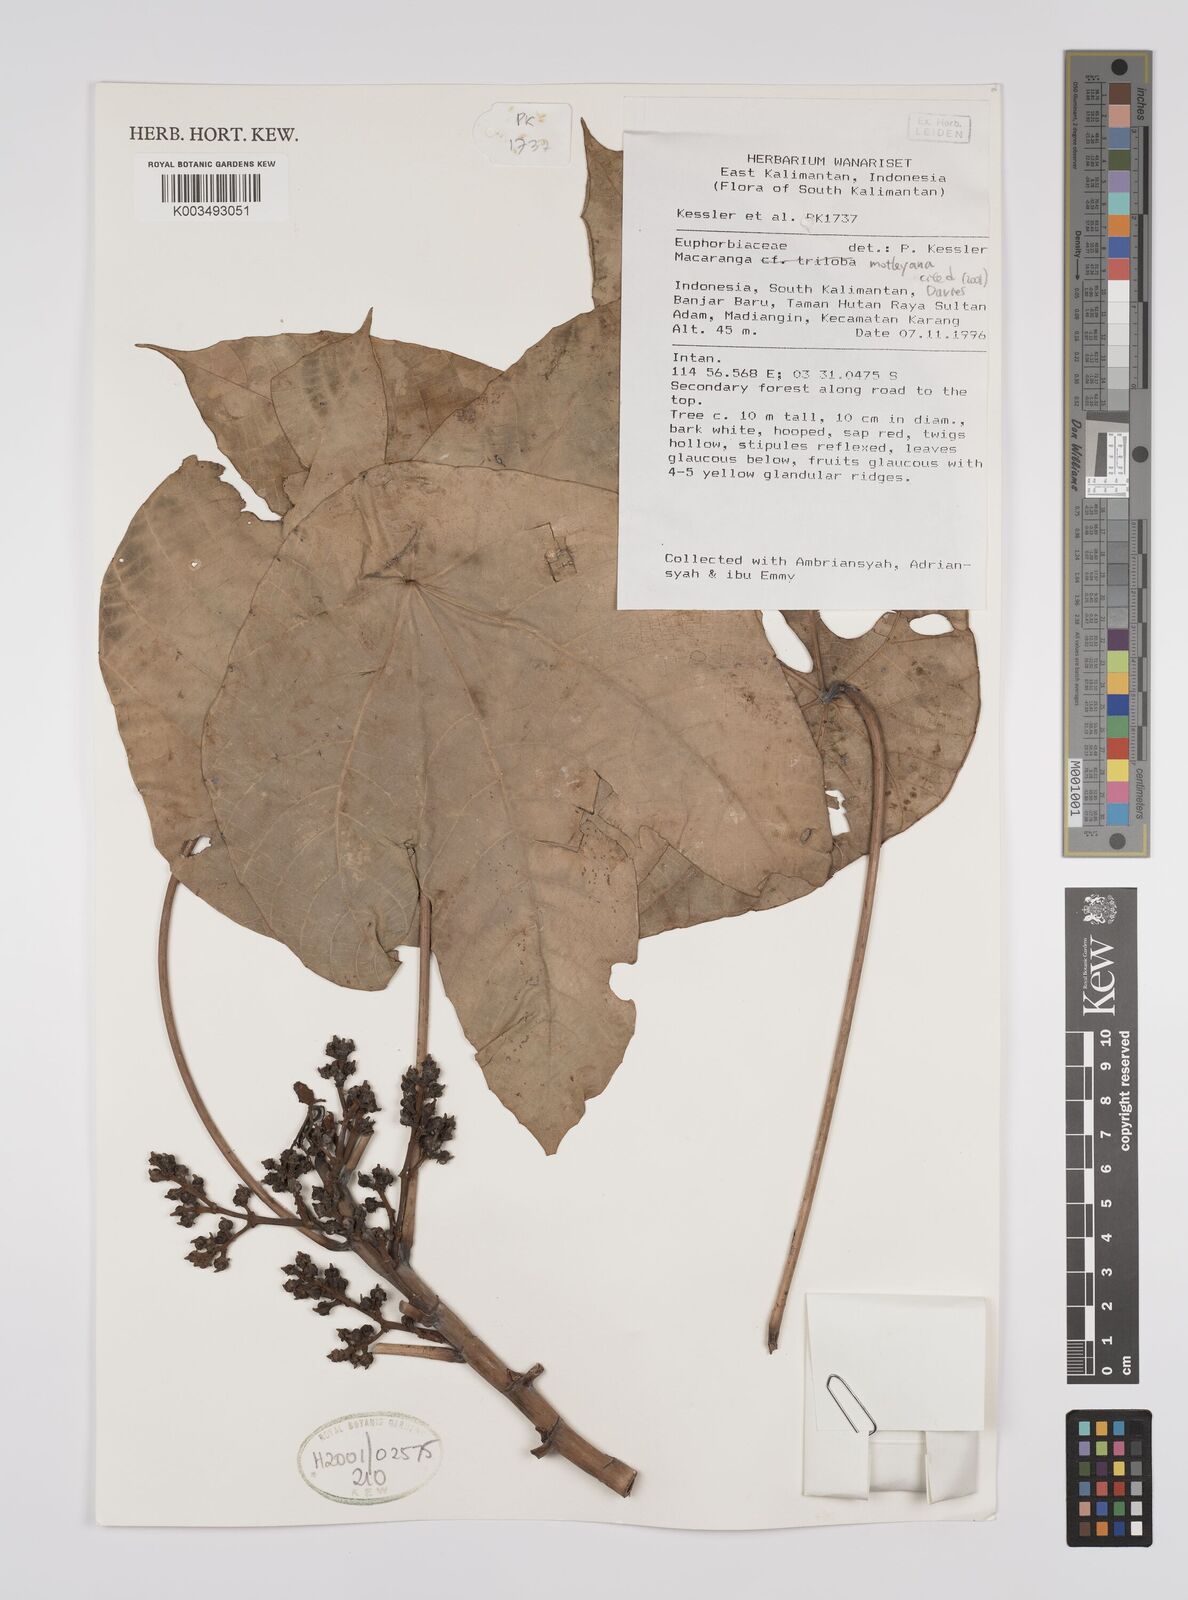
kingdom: Plantae
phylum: Tracheophyta
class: Magnoliopsida
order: Malpighiales
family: Euphorbiaceae
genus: Macaranga
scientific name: Macaranga motleyana
